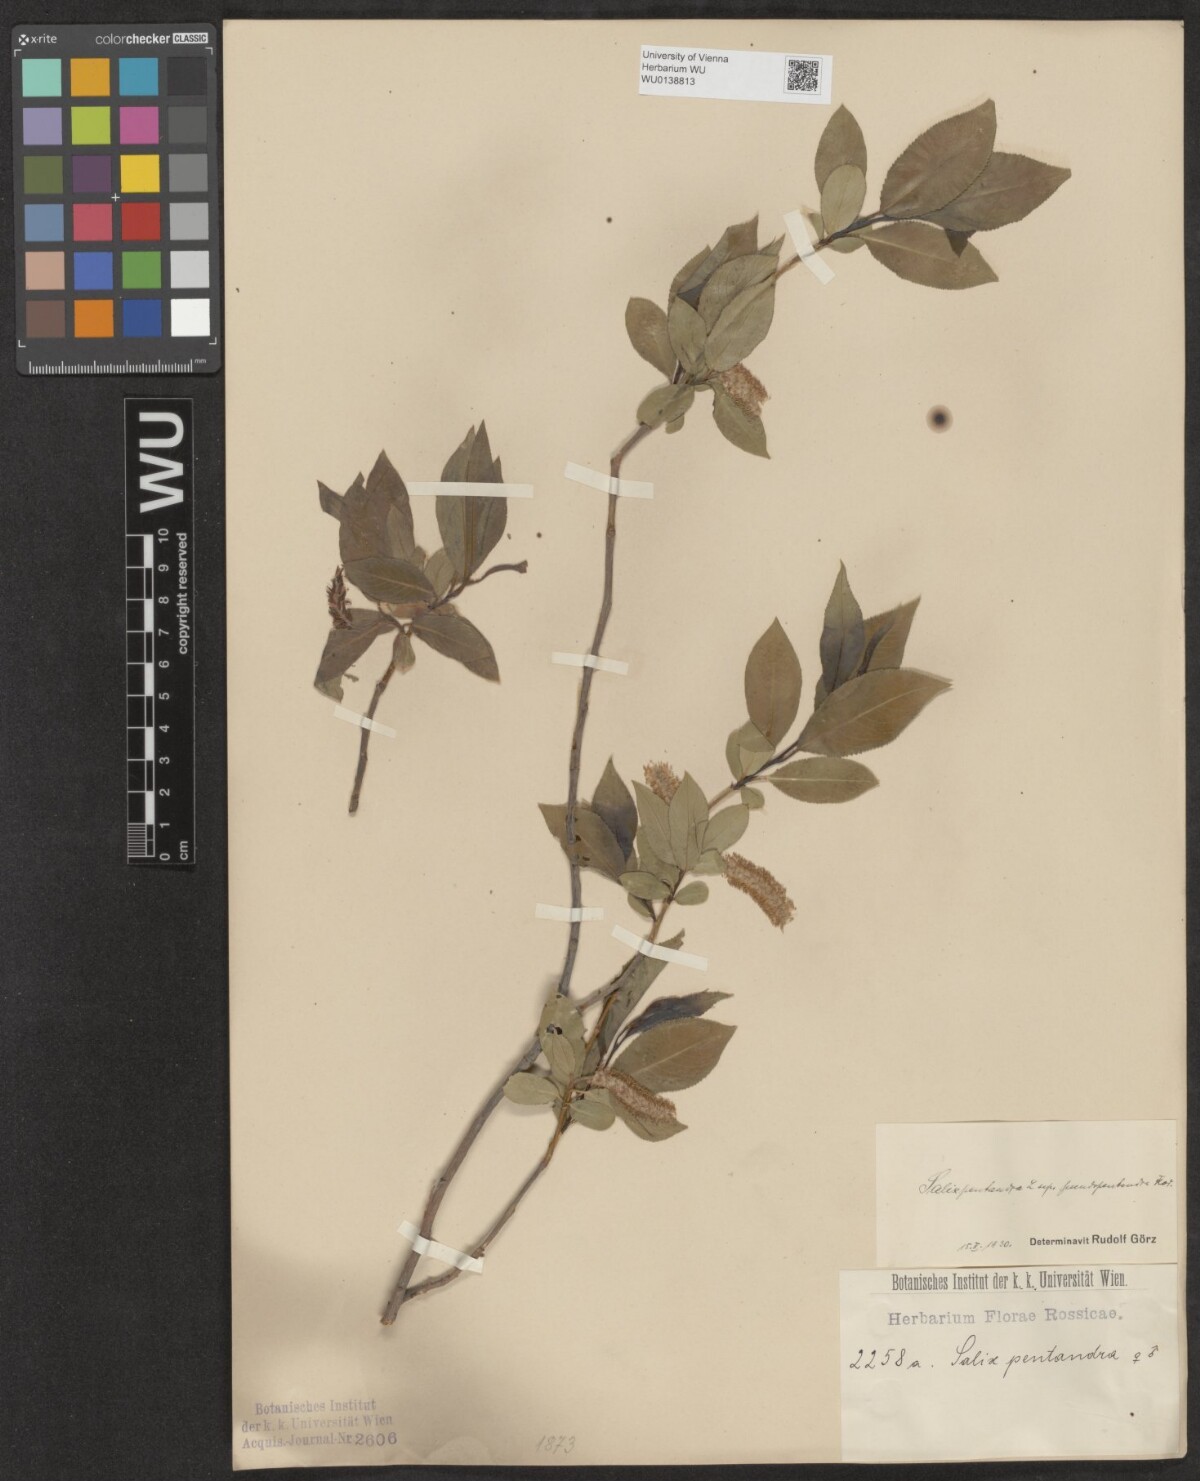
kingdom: Plantae
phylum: Tracheophyta
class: Magnoliopsida
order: Malpighiales
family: Salicaceae
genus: Salix
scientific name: Salix pentandra
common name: Bay willow
